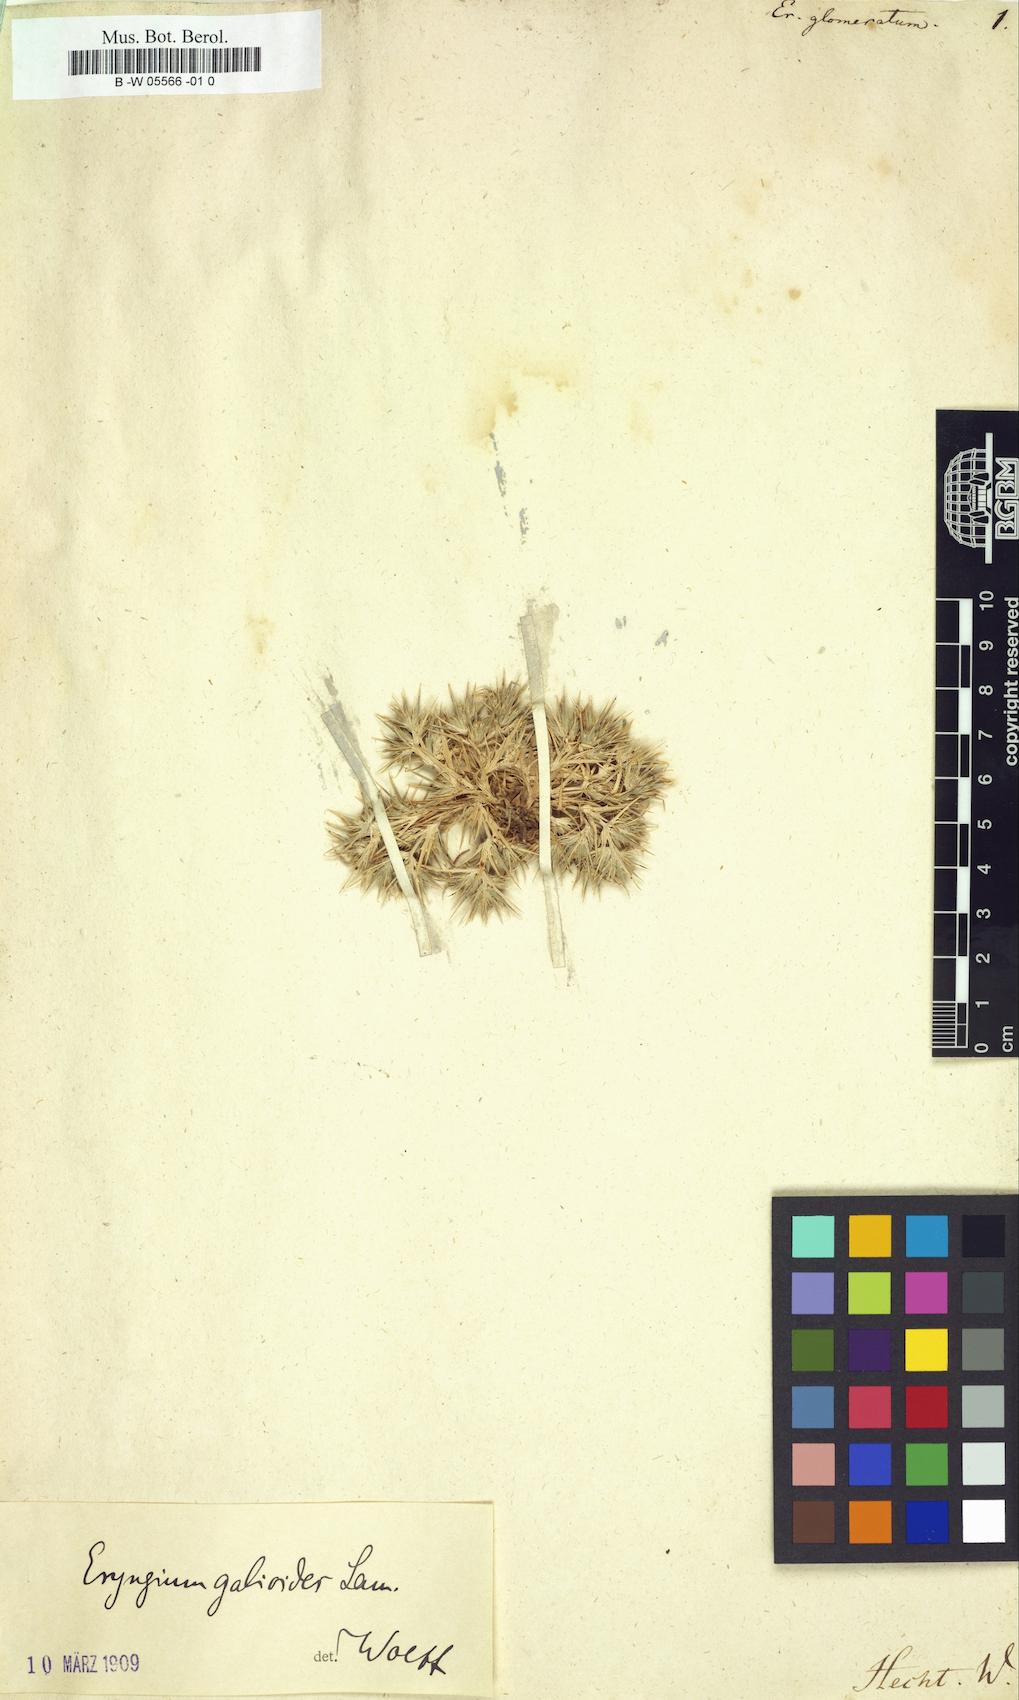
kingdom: Plantae
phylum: Tracheophyta
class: Magnoliopsida
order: Apiales
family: Apiaceae
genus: Eryngium
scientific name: Eryngium glomeratum
